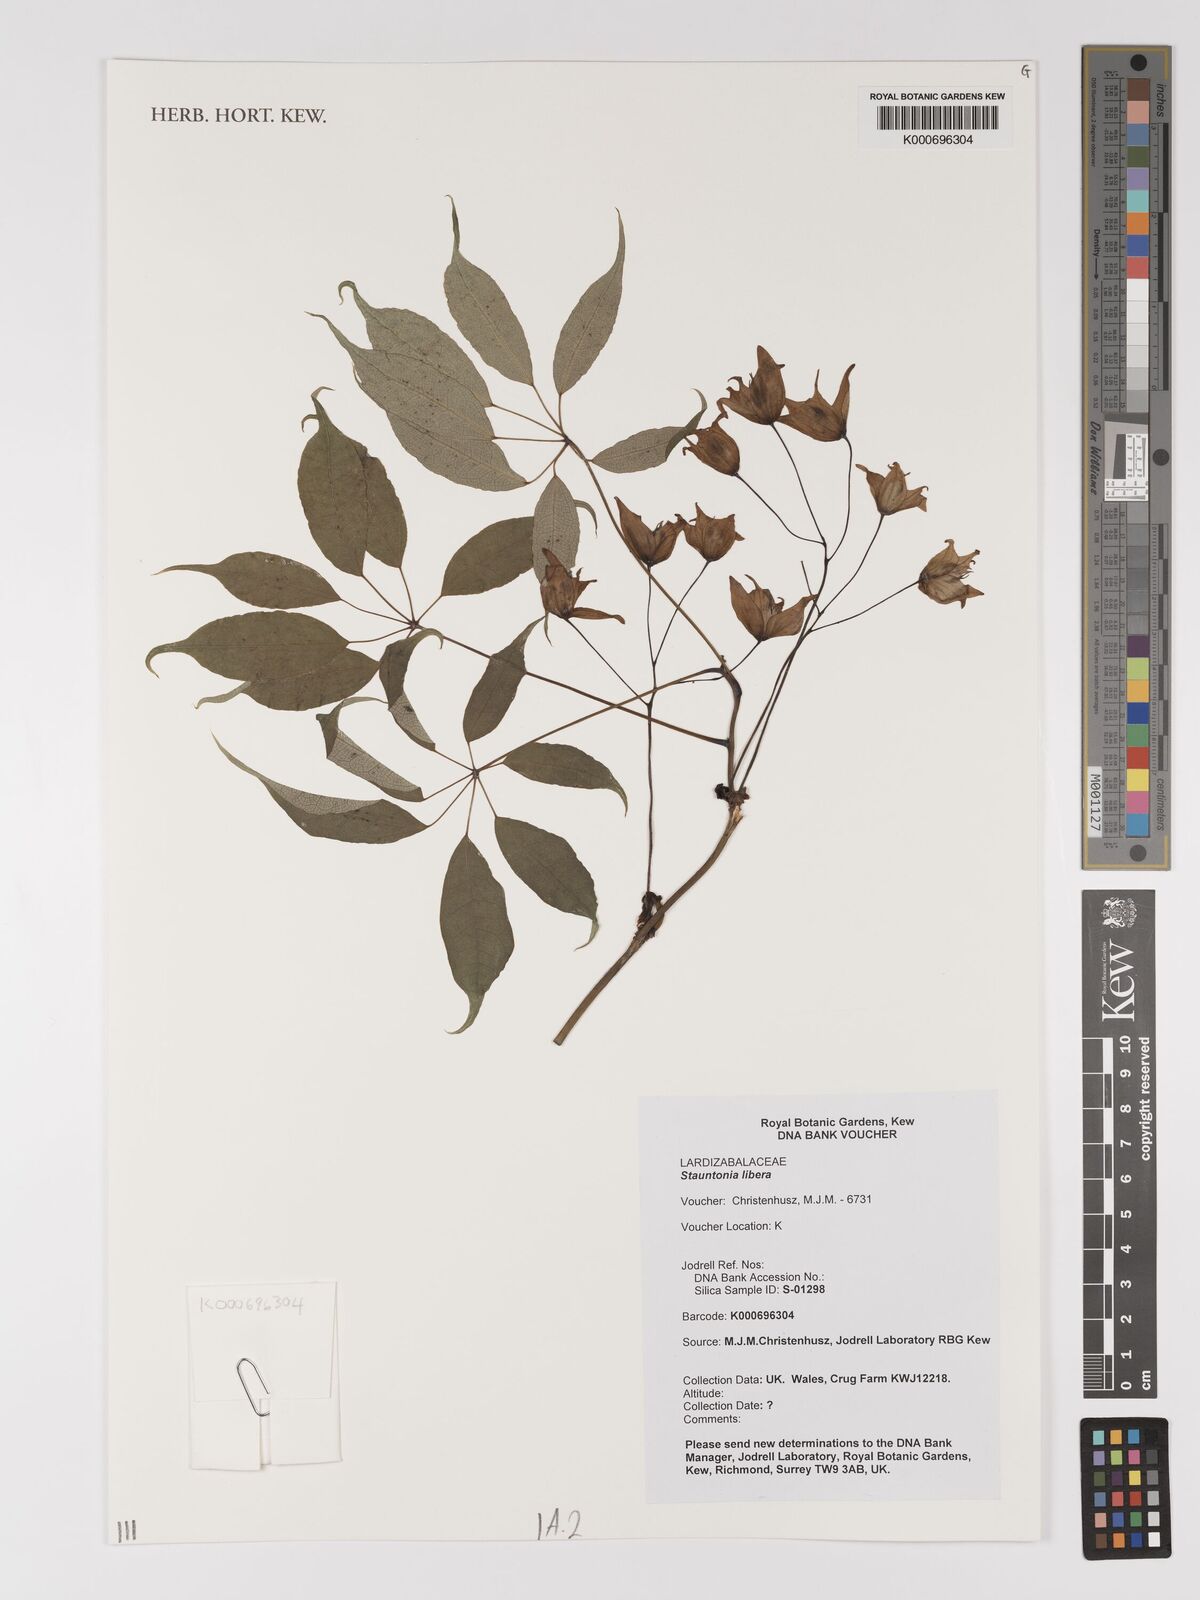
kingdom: Plantae
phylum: Tracheophyta
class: Magnoliopsida
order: Ranunculales
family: Lardizabalaceae
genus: Stauntonia
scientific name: Stauntonia libera
